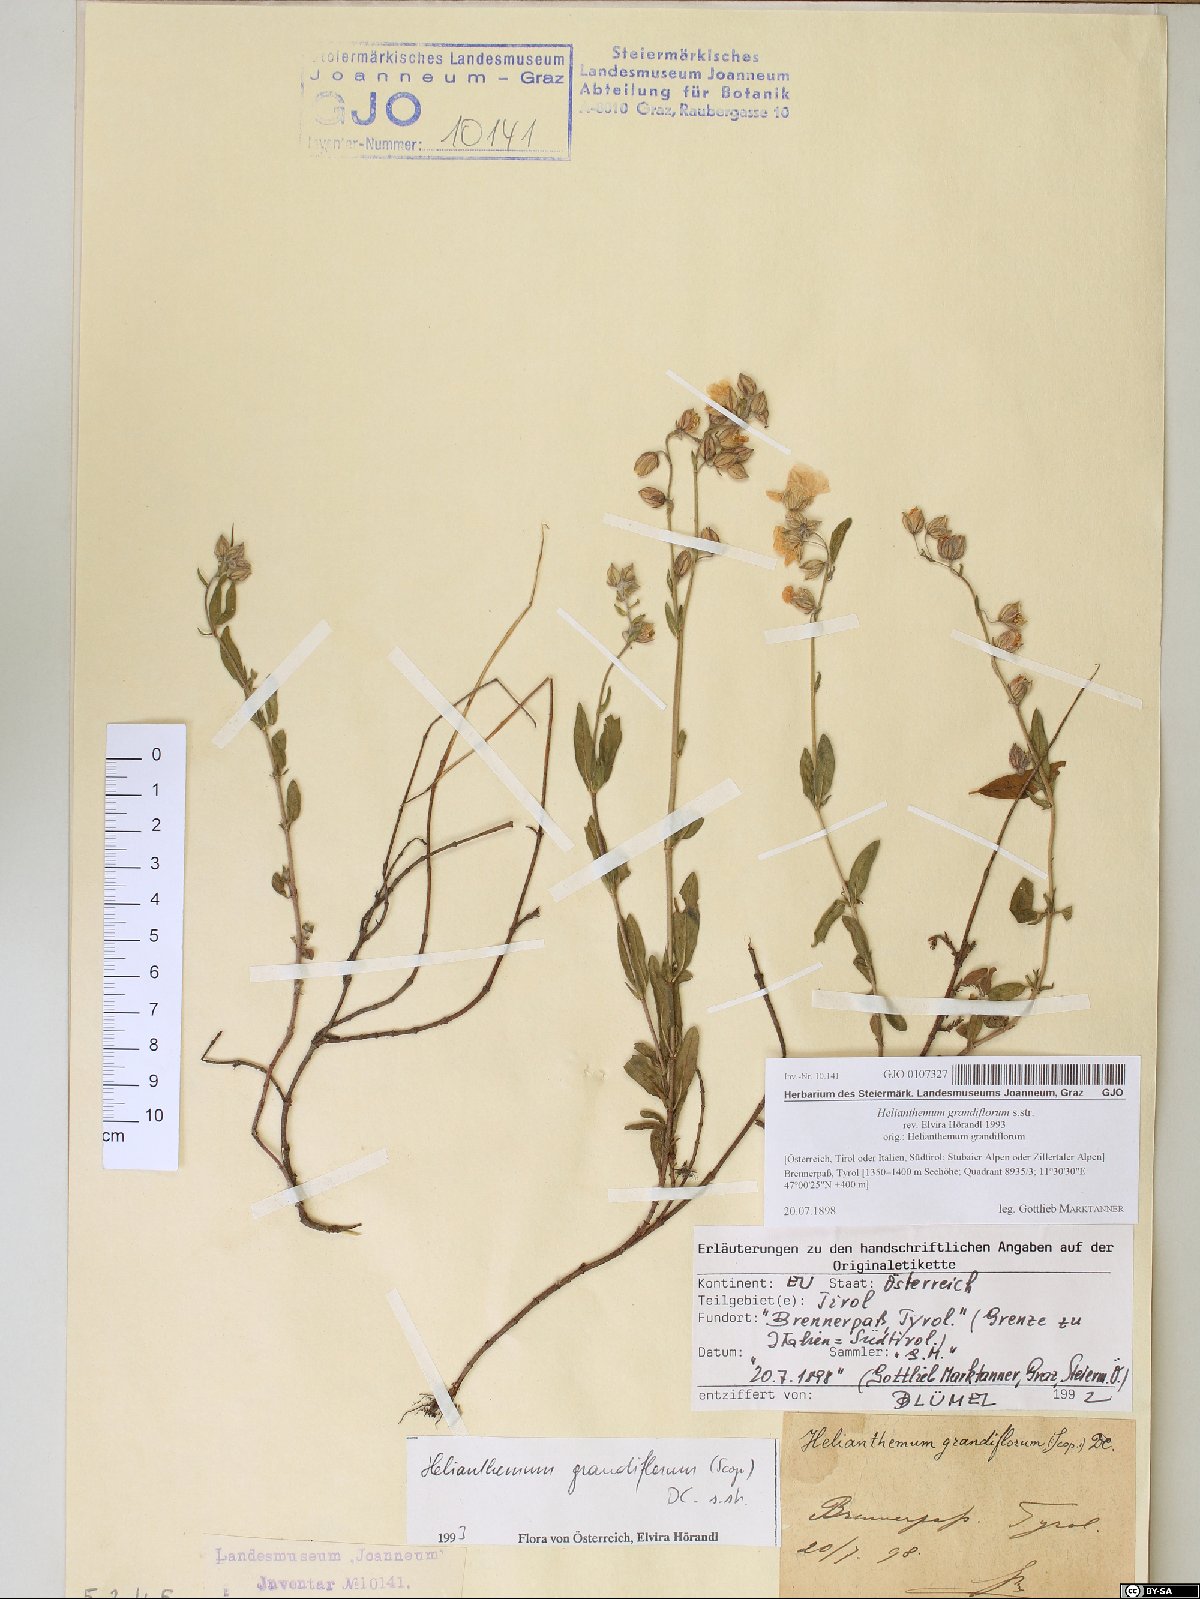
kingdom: Plantae
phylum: Tracheophyta
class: Magnoliopsida
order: Malvales
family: Cistaceae
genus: Helianthemum
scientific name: Helianthemum nummularium
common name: Common rock-rose
